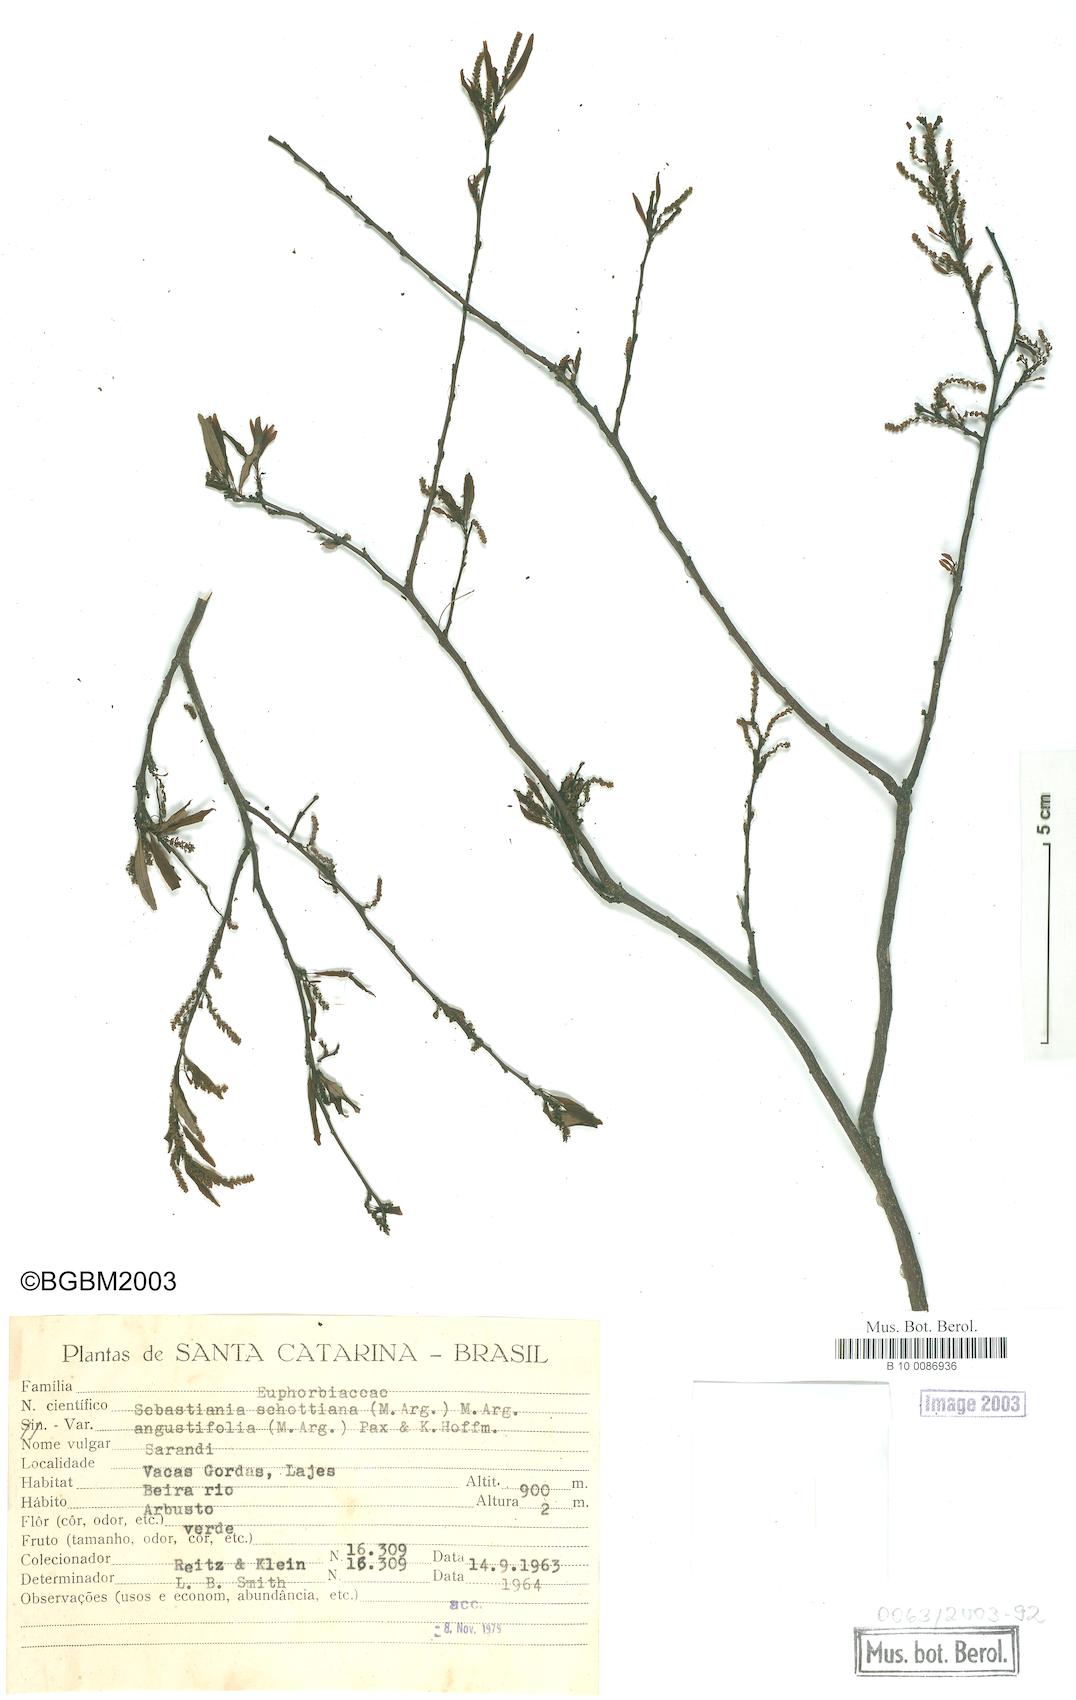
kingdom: Plantae
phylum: Tracheophyta
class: Magnoliopsida
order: Malpighiales
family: Euphorbiaceae
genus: Sebastiania
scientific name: Sebastiania schottiana
